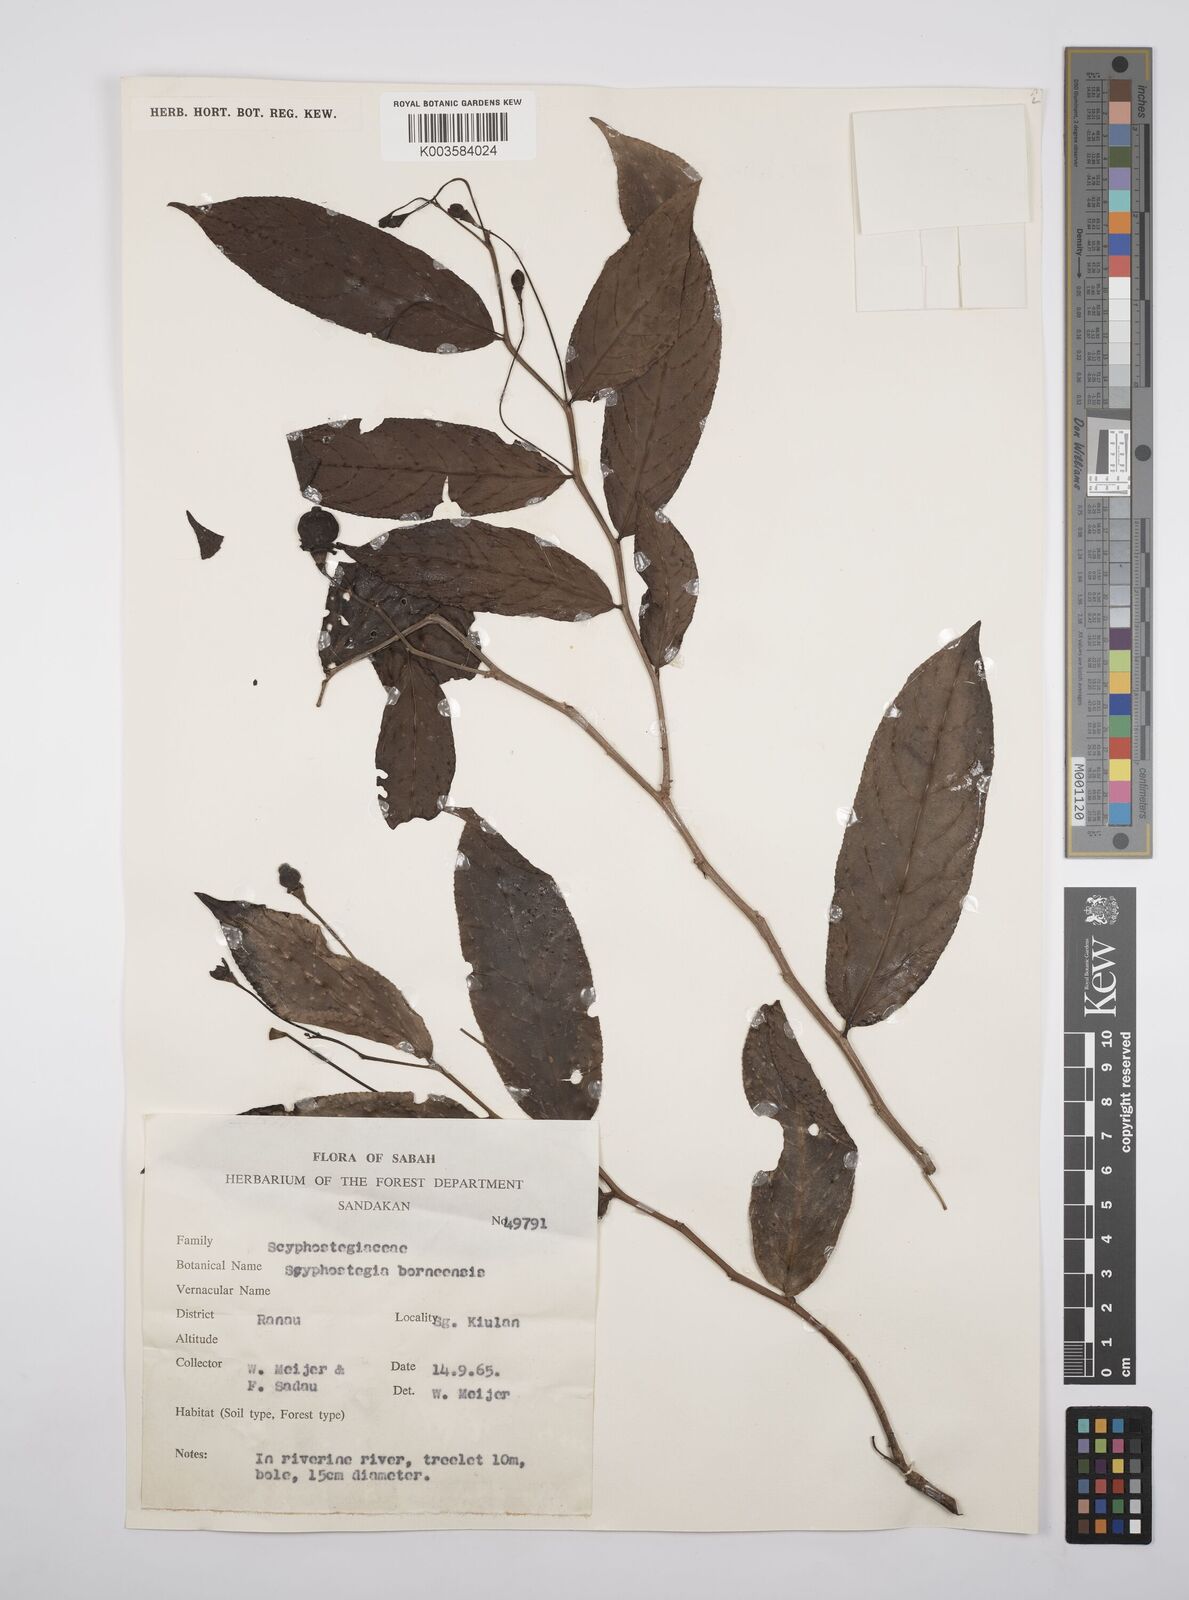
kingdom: Plantae
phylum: Tracheophyta
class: Magnoliopsida
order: Malpighiales
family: Salicaceae
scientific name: Salicaceae
